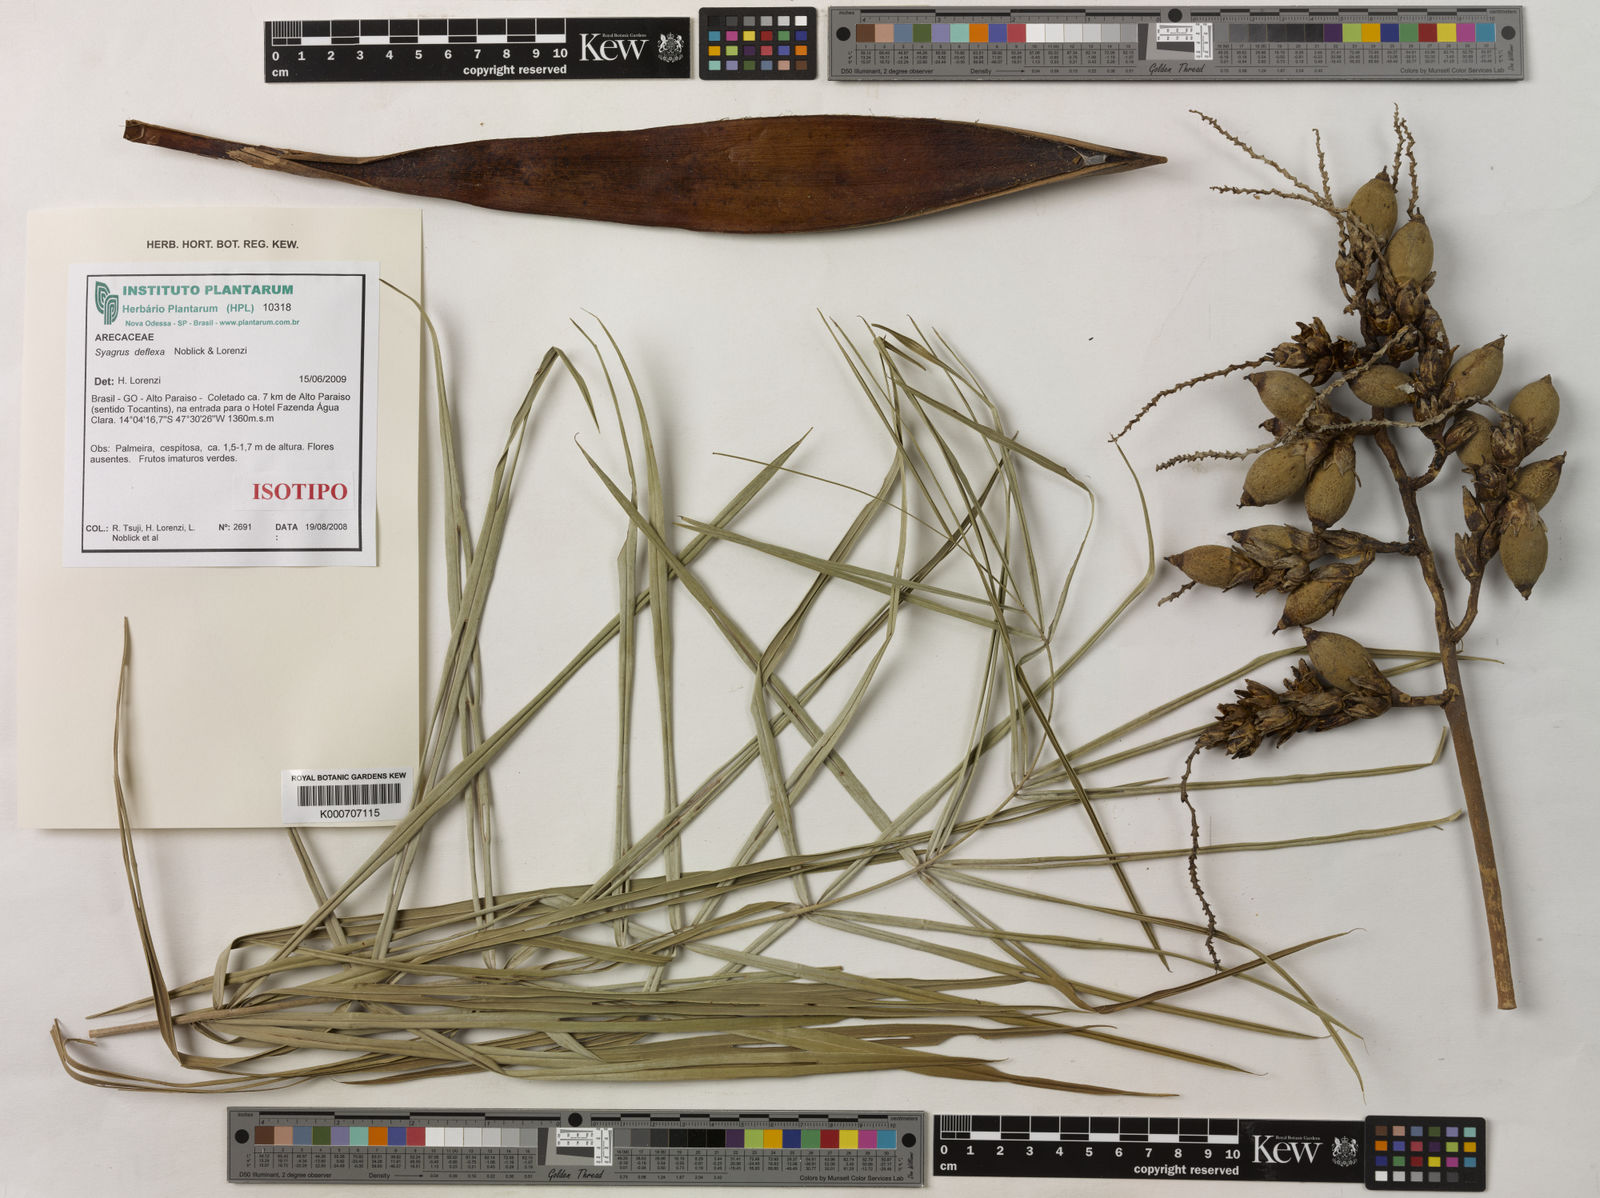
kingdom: Plantae
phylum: Tracheophyta
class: Liliopsida
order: Arecales
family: Arecaceae
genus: Syagrus
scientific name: Syagrus deflexa
